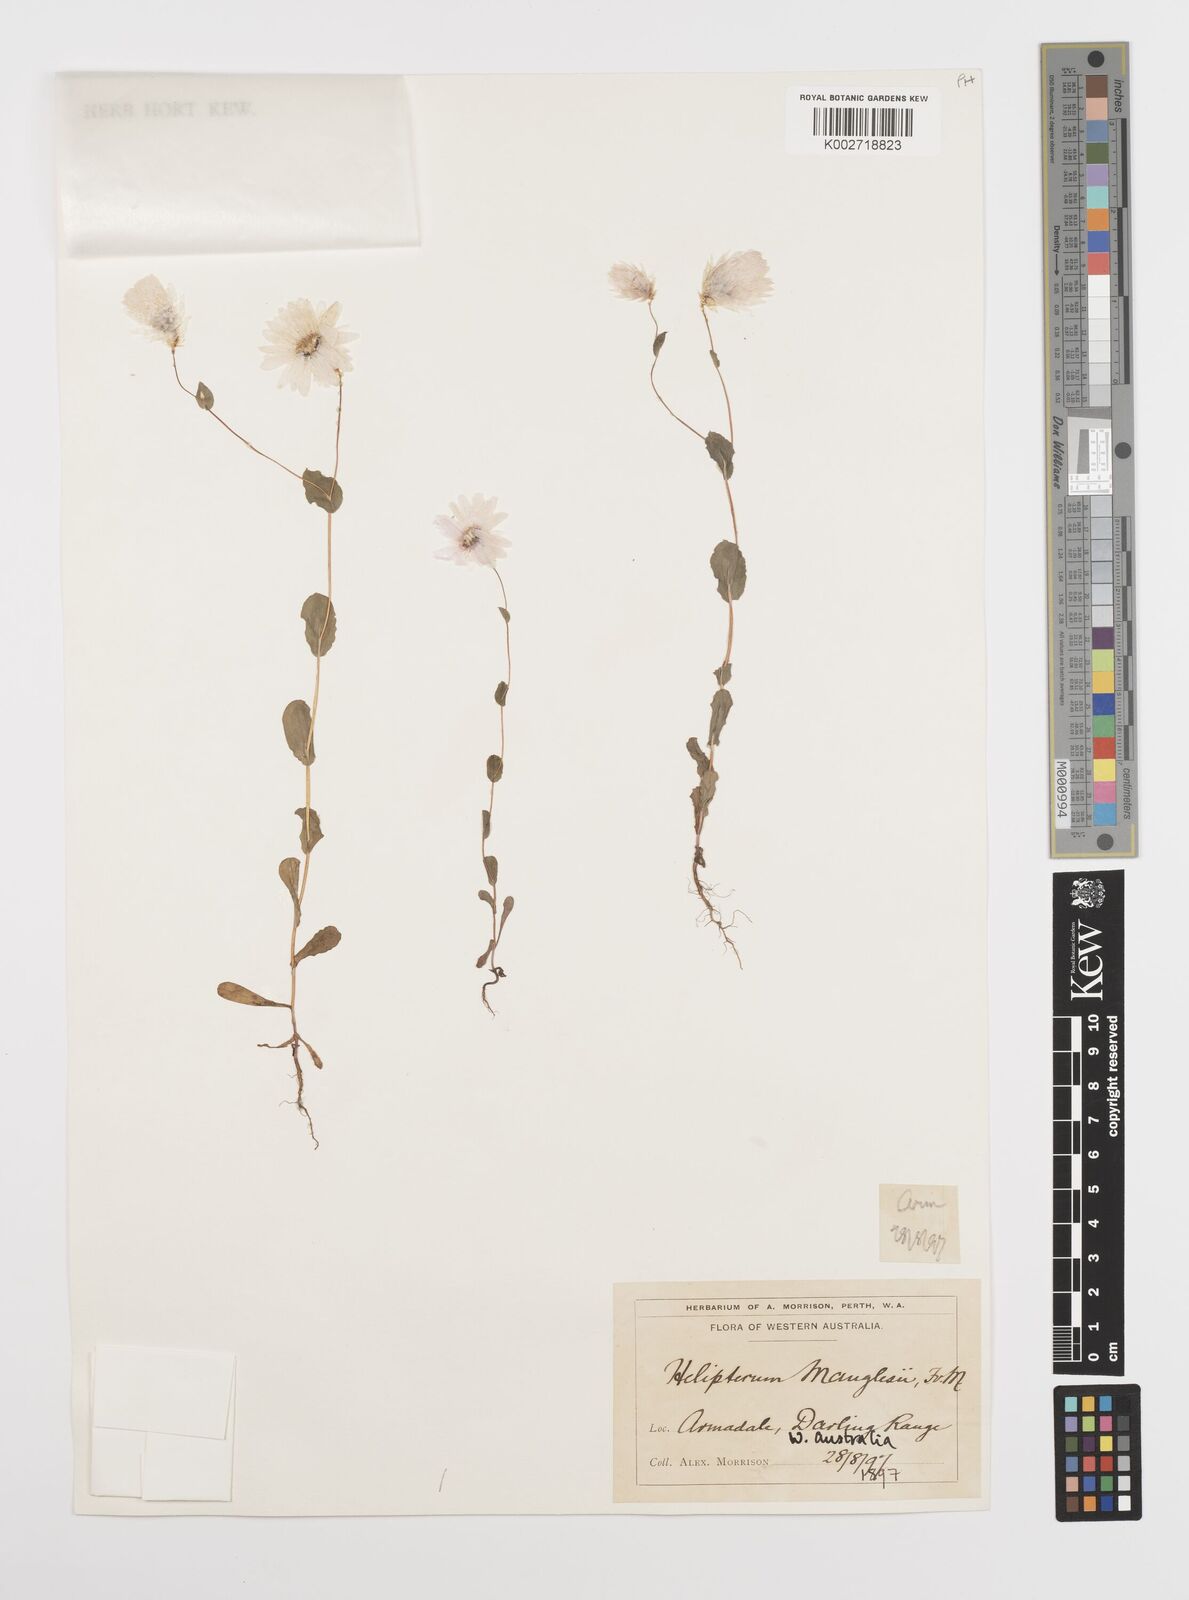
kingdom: Plantae
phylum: Tracheophyta
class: Magnoliopsida
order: Asterales
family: Asteraceae
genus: Rhodanthe
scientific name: Rhodanthe manglesii
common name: Pink sunray
